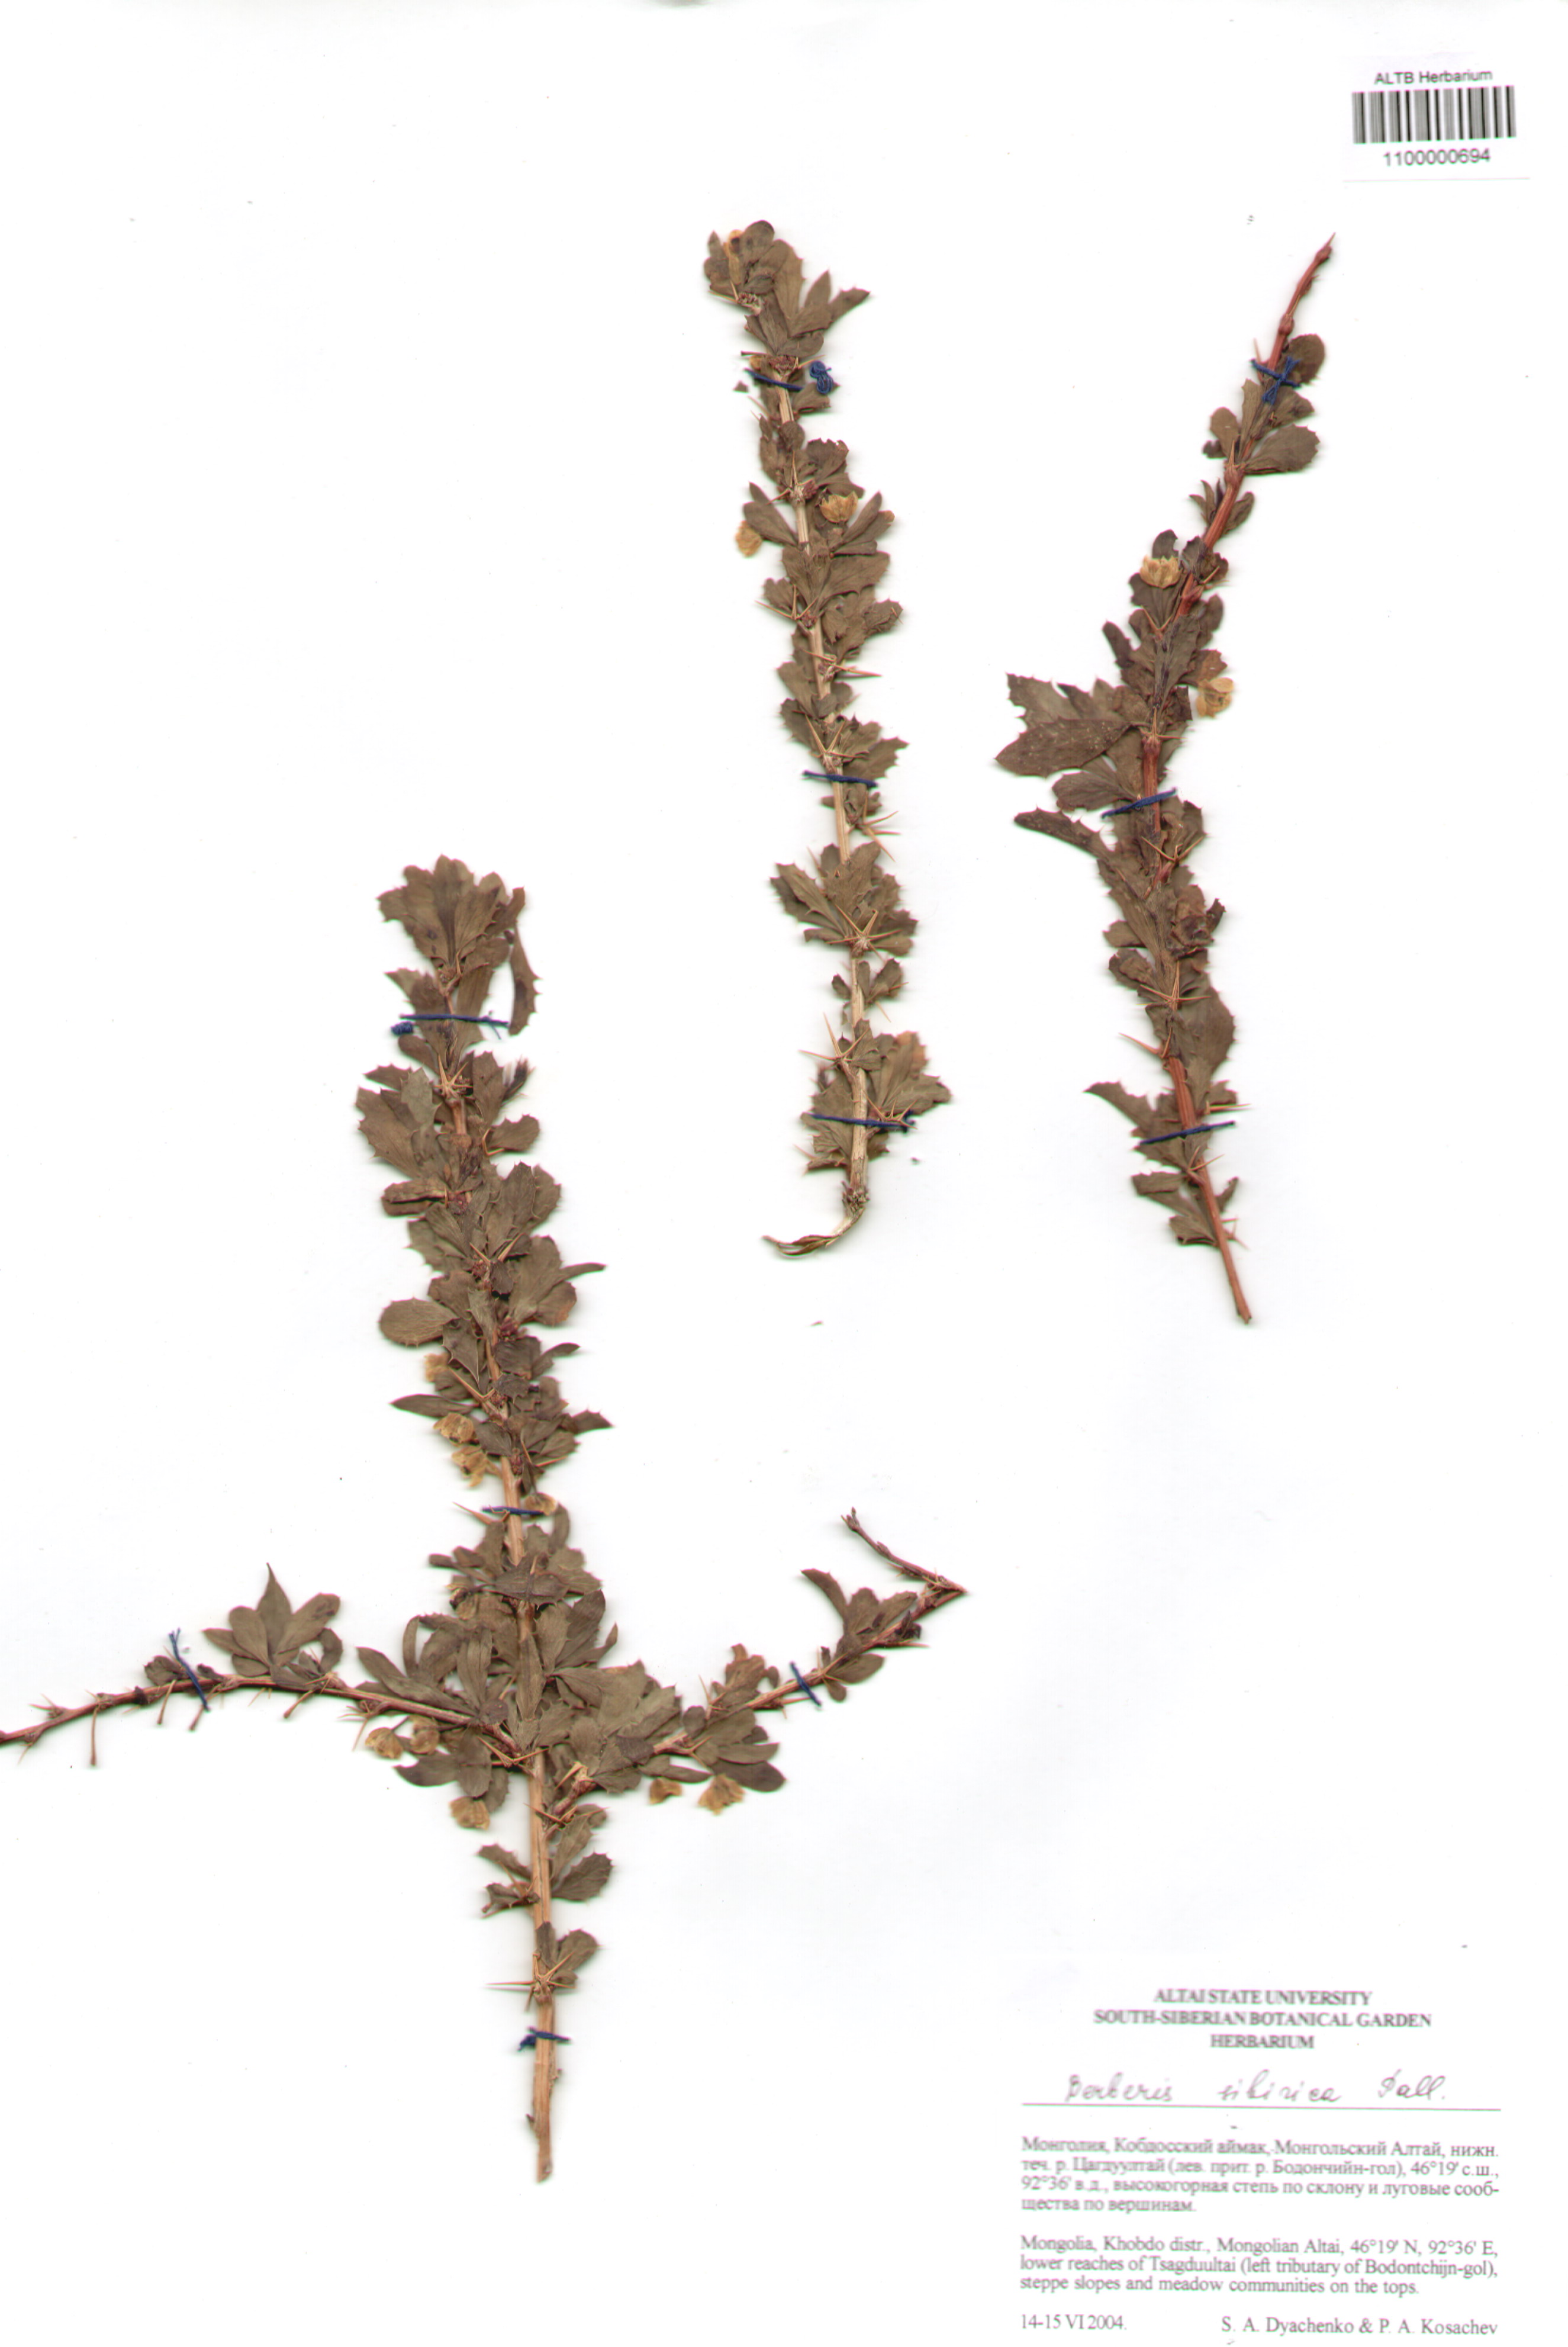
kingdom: Plantae
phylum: Tracheophyta
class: Magnoliopsida
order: Ranunculales
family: Berberidaceae
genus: Berberis
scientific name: Berberis sibirica
